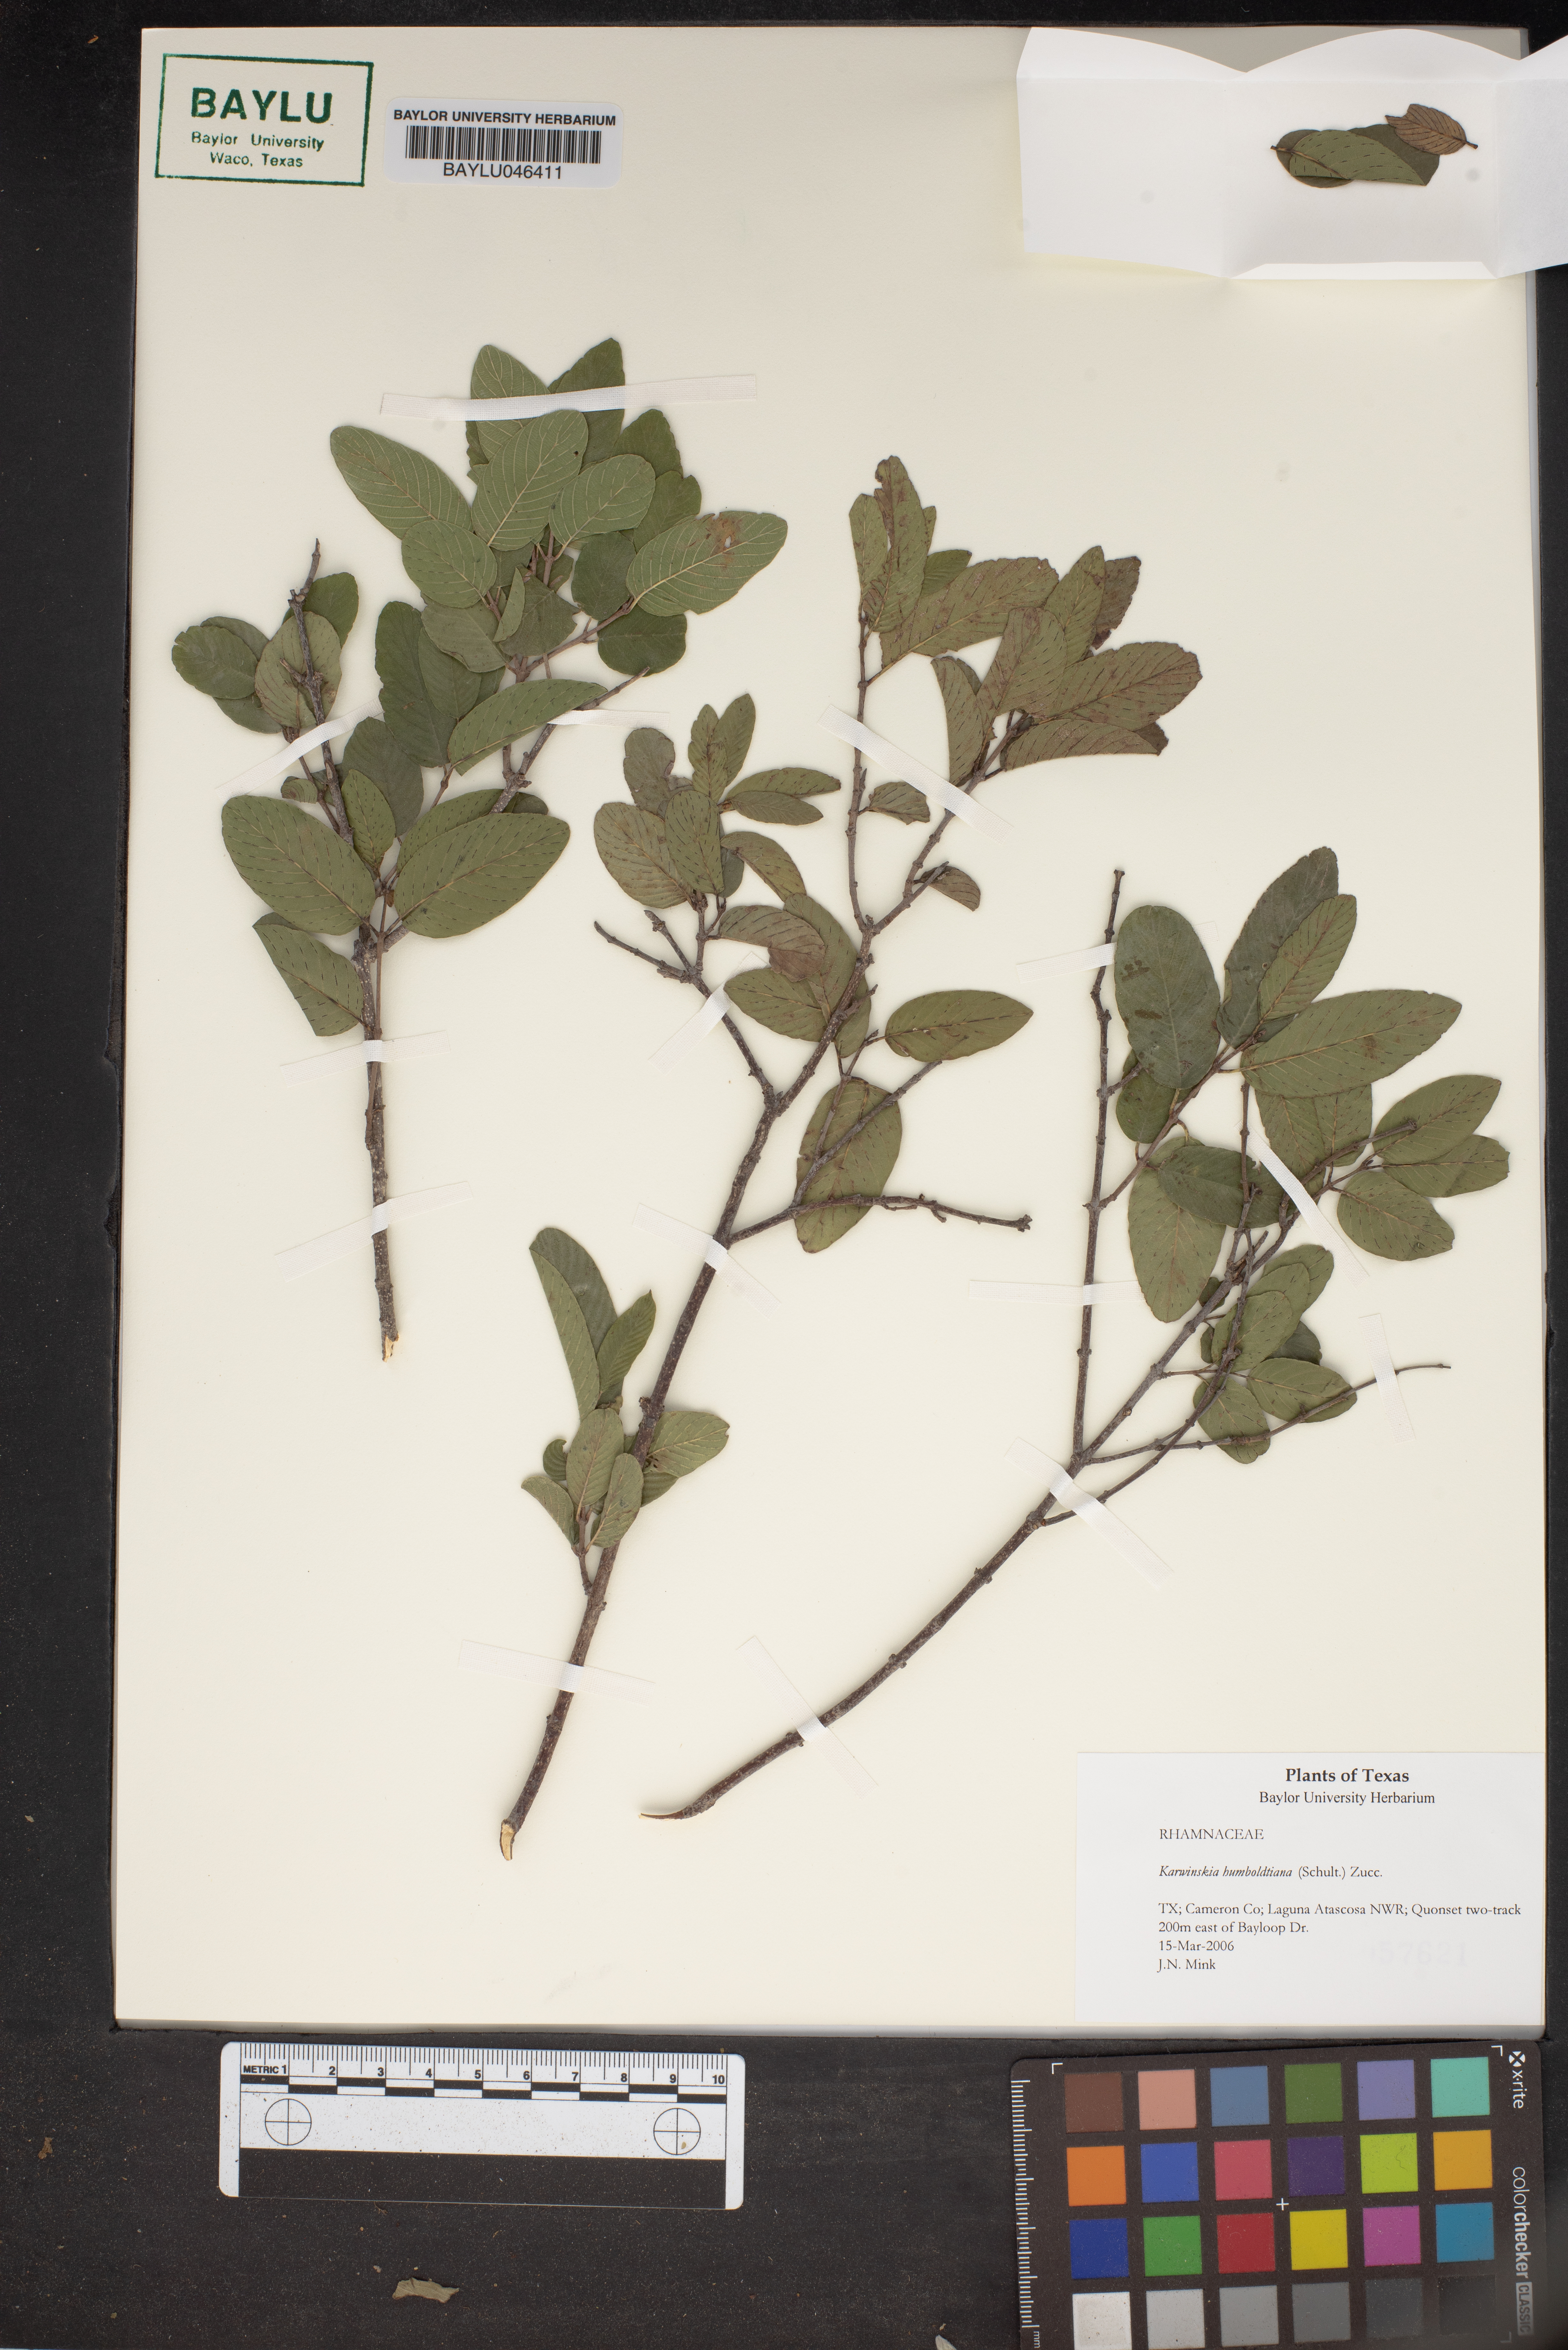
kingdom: Plantae
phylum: Tracheophyta
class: Magnoliopsida
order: Rosales
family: Rhamnaceae
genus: Karwinskia
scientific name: Karwinskia humboldtiana
